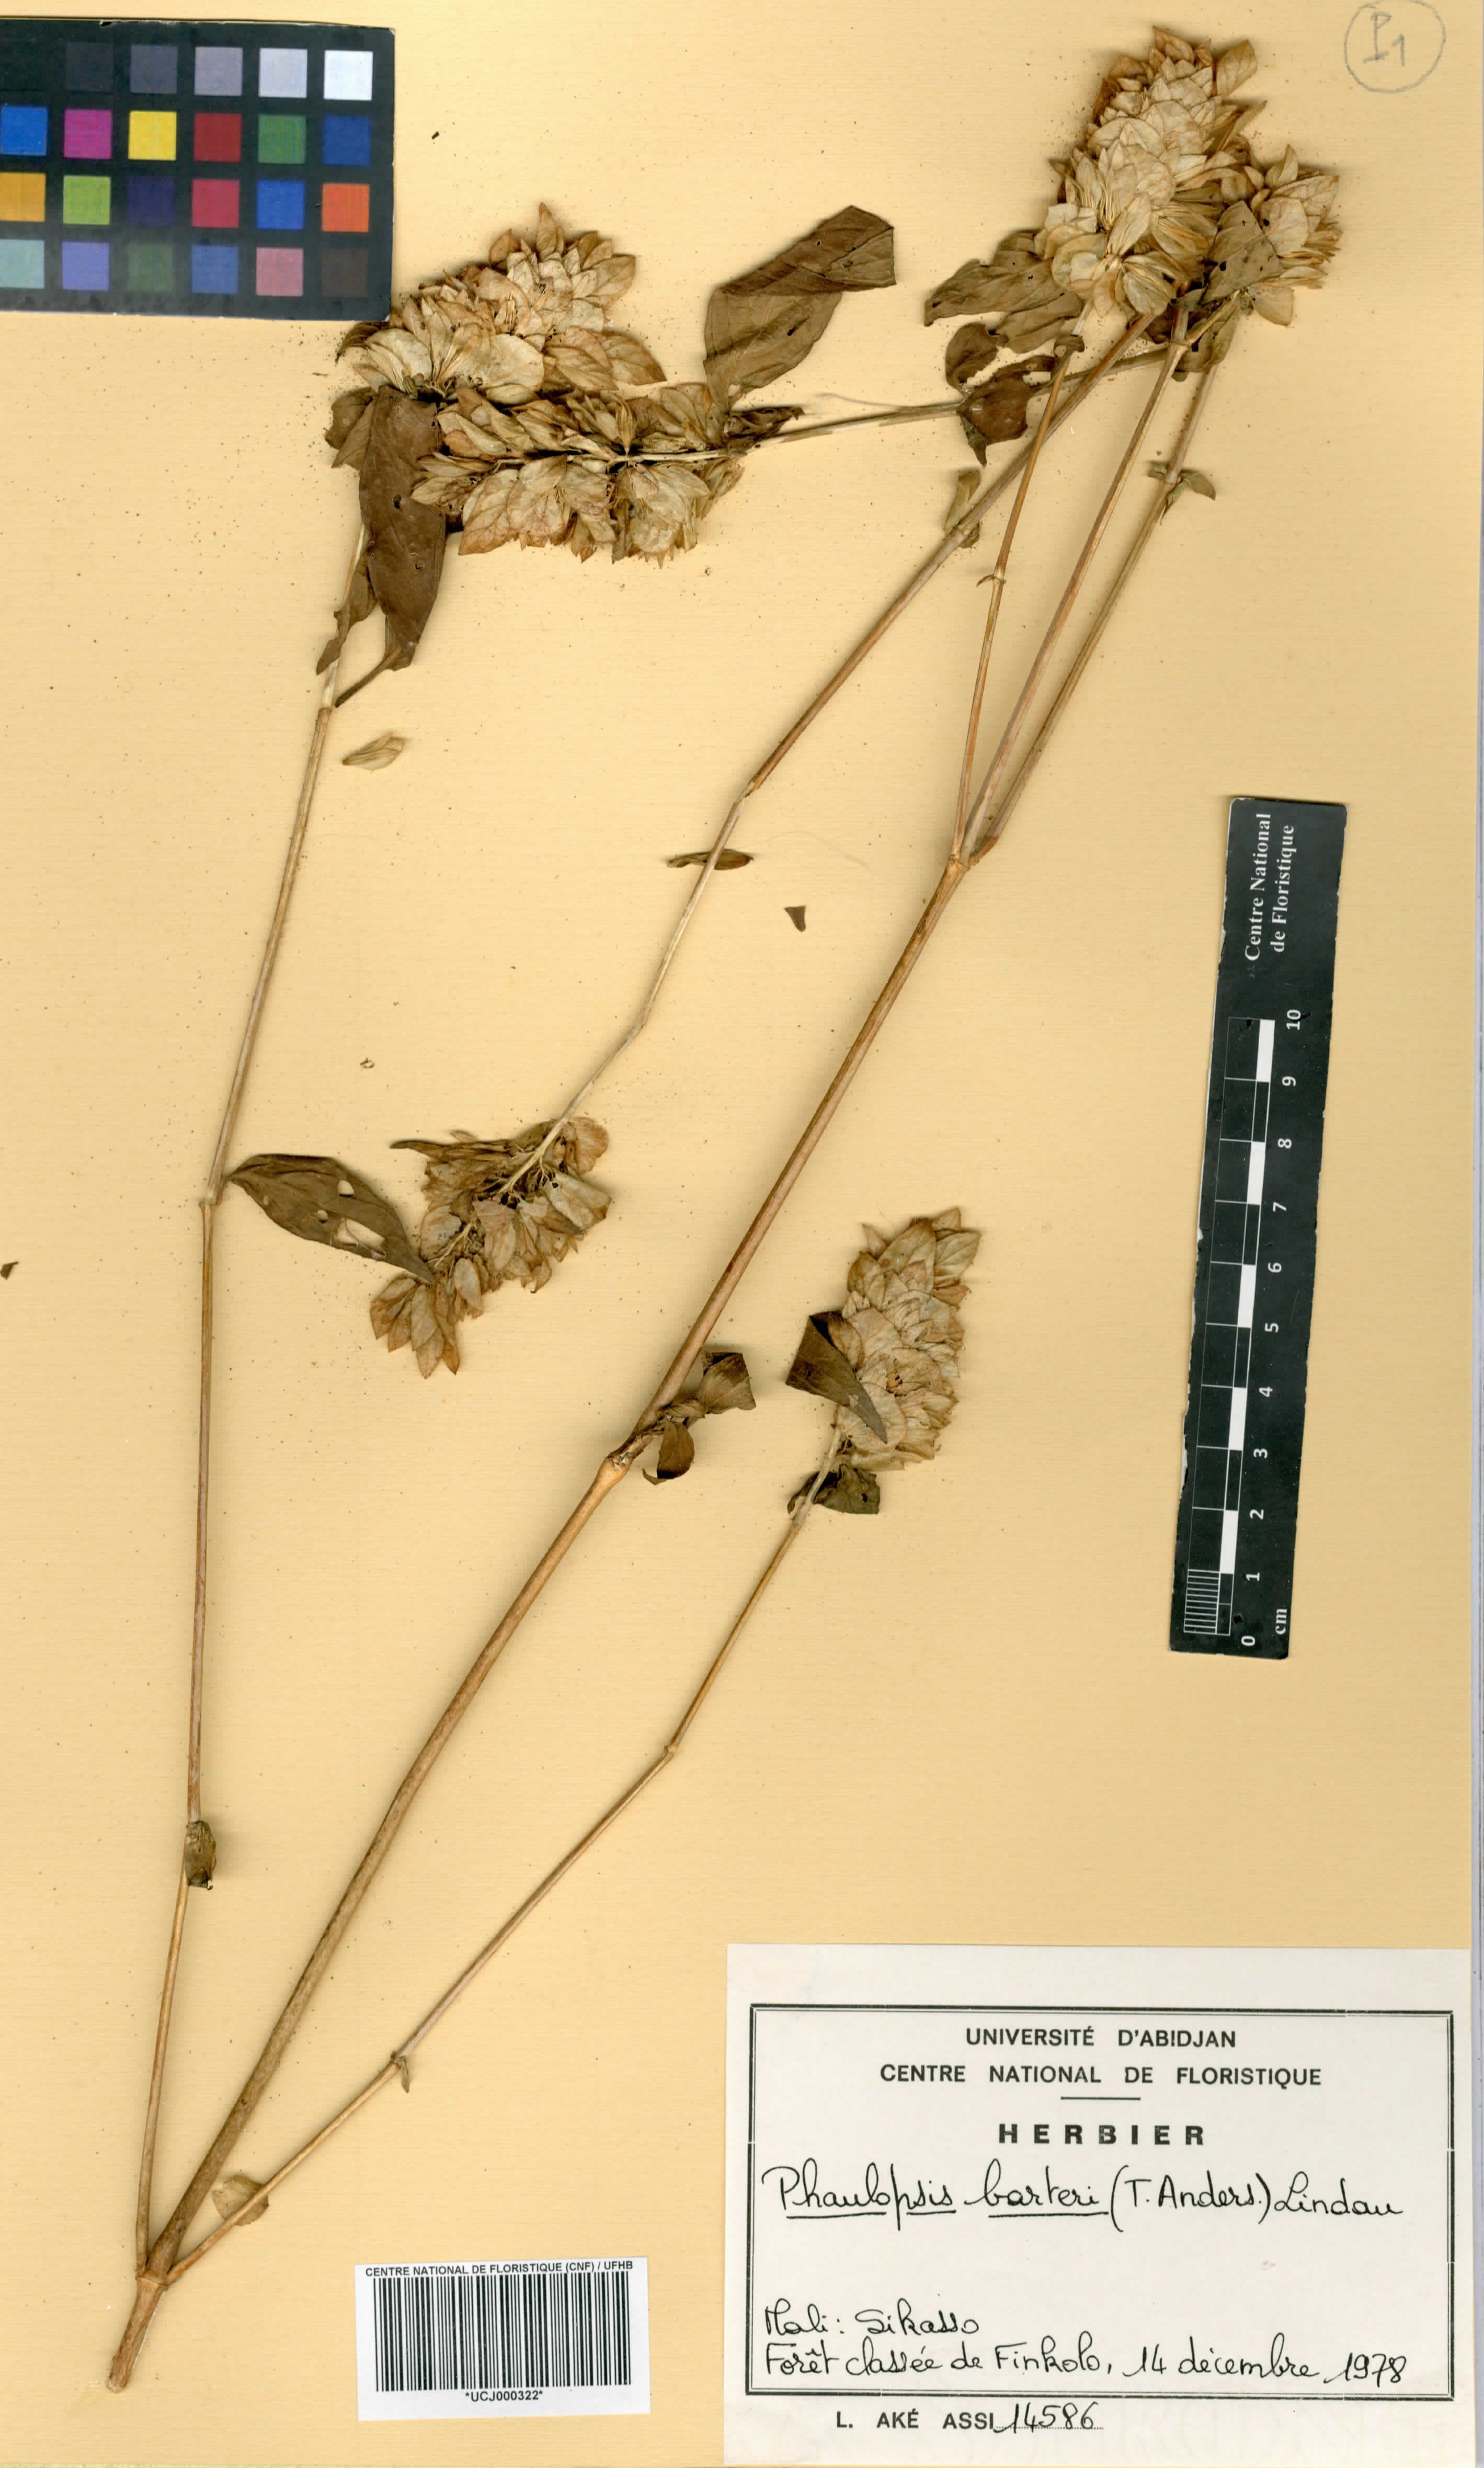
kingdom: Plantae
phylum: Tracheophyta
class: Magnoliopsida
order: Lamiales
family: Acanthaceae
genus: Phaulopsis
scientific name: Phaulopsis barteri
